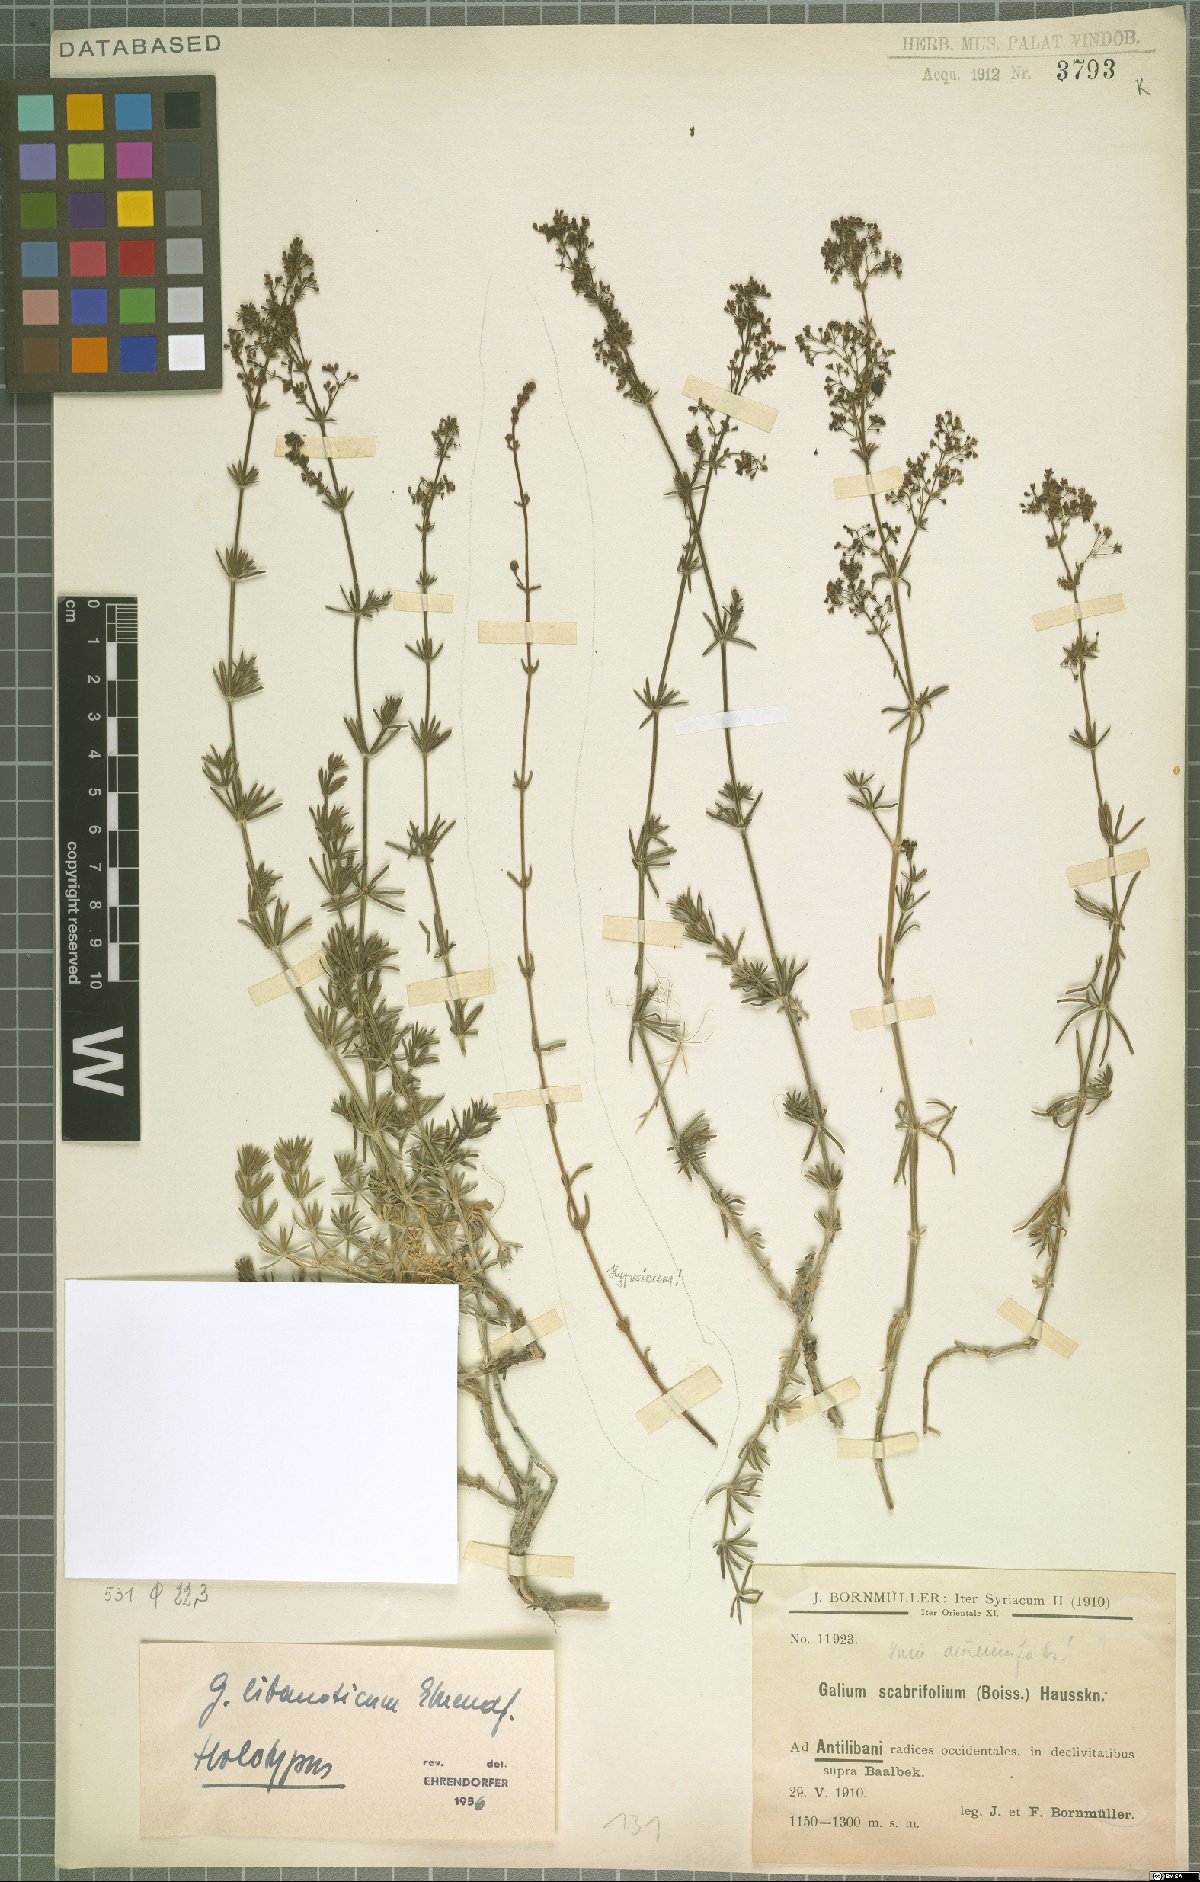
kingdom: Plantae
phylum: Tracheophyta
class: Magnoliopsida
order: Gentianales
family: Rubiaceae
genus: Galium
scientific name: Galium libanoticum
